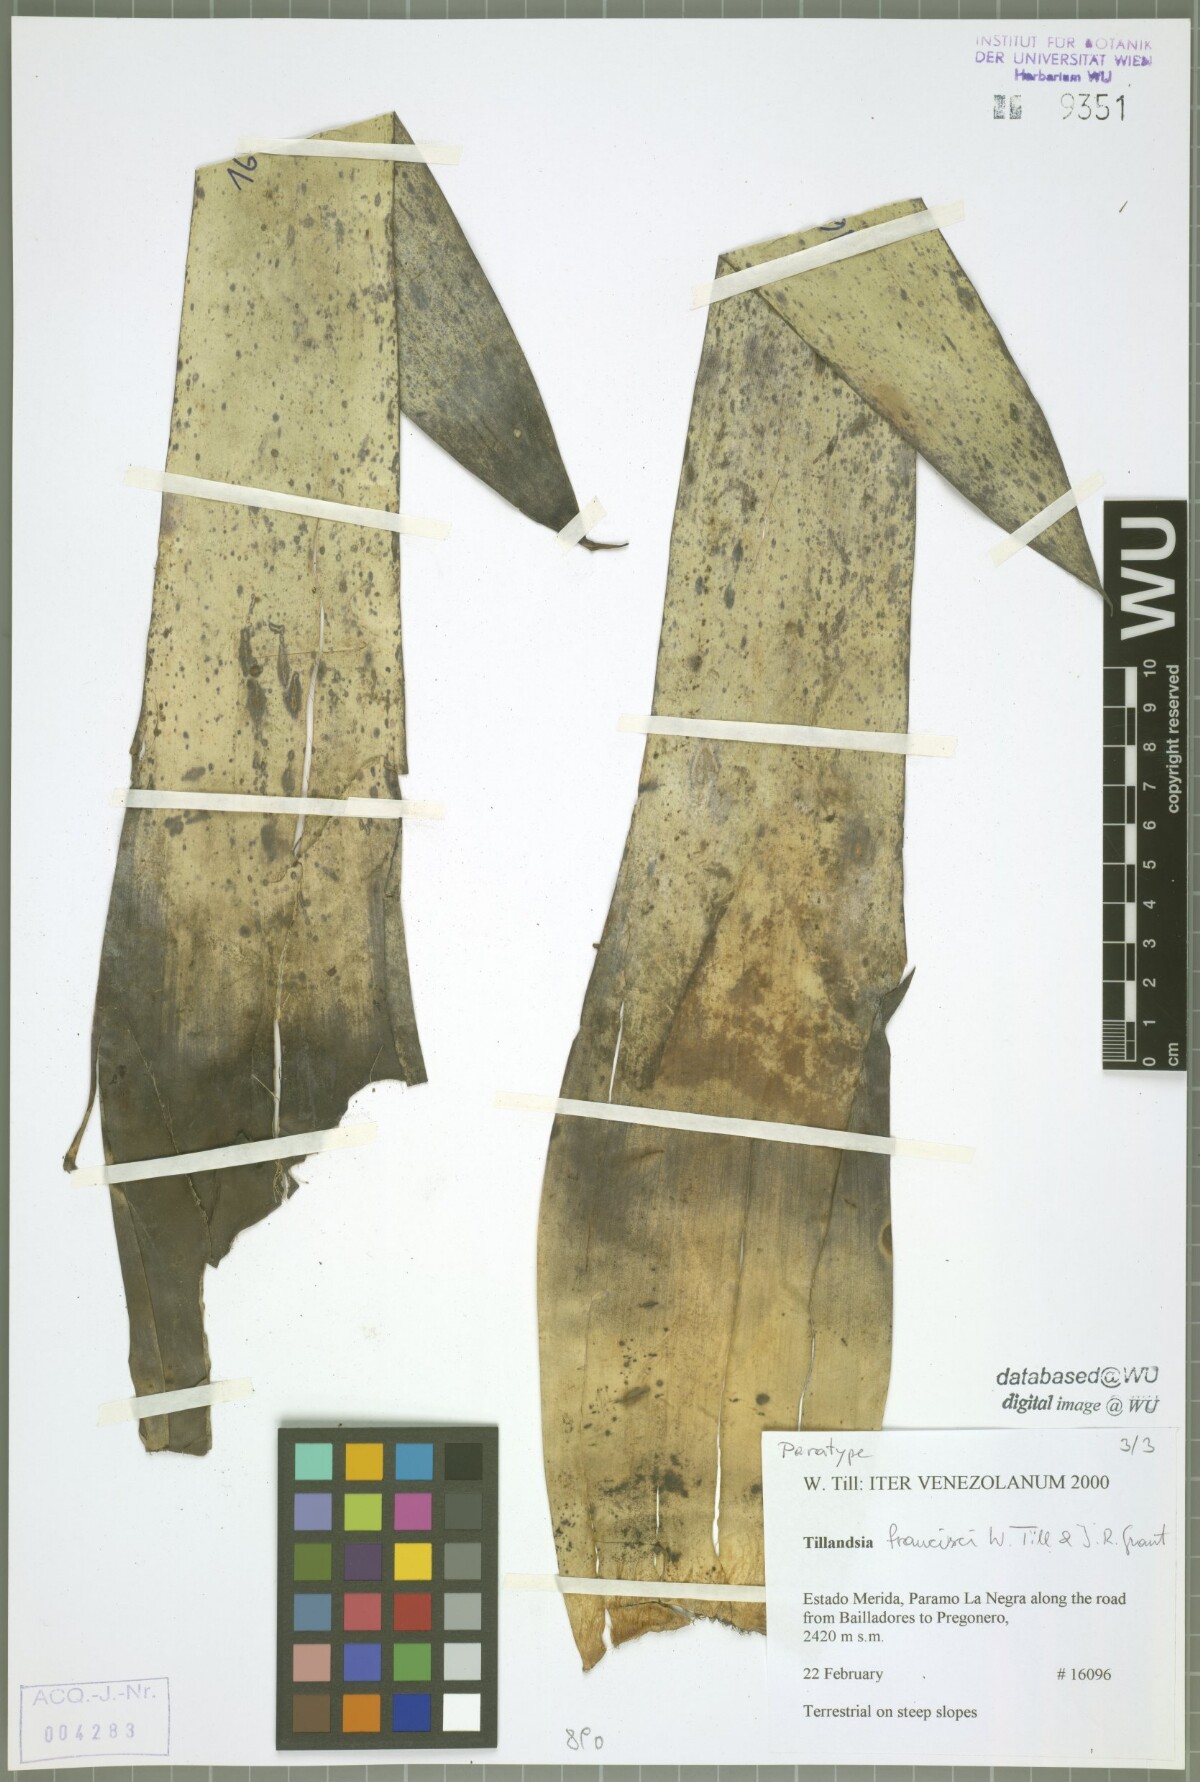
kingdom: Plantae
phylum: Tracheophyta
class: Liliopsida
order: Poales
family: Bromeliaceae
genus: Tillandsia
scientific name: Tillandsia francisci
